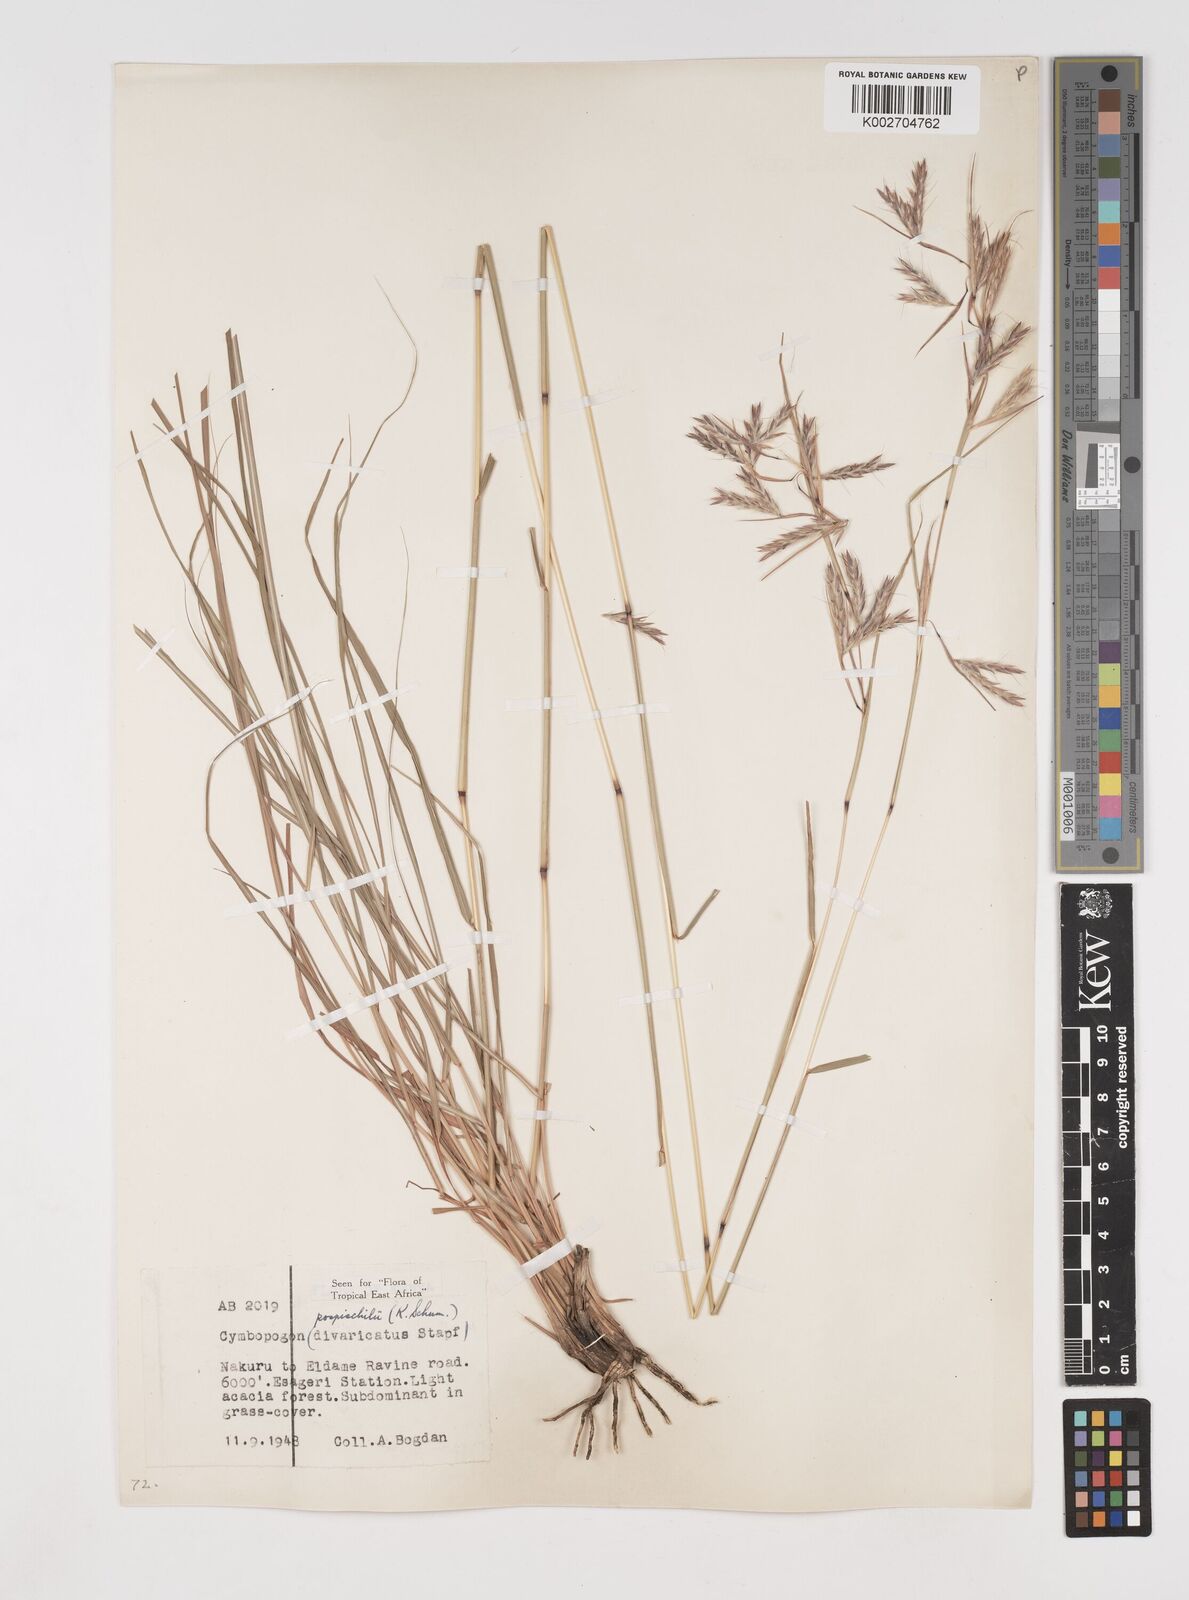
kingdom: Plantae
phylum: Tracheophyta
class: Liliopsida
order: Poales
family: Poaceae
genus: Cymbopogon
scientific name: Cymbopogon pospischilii
